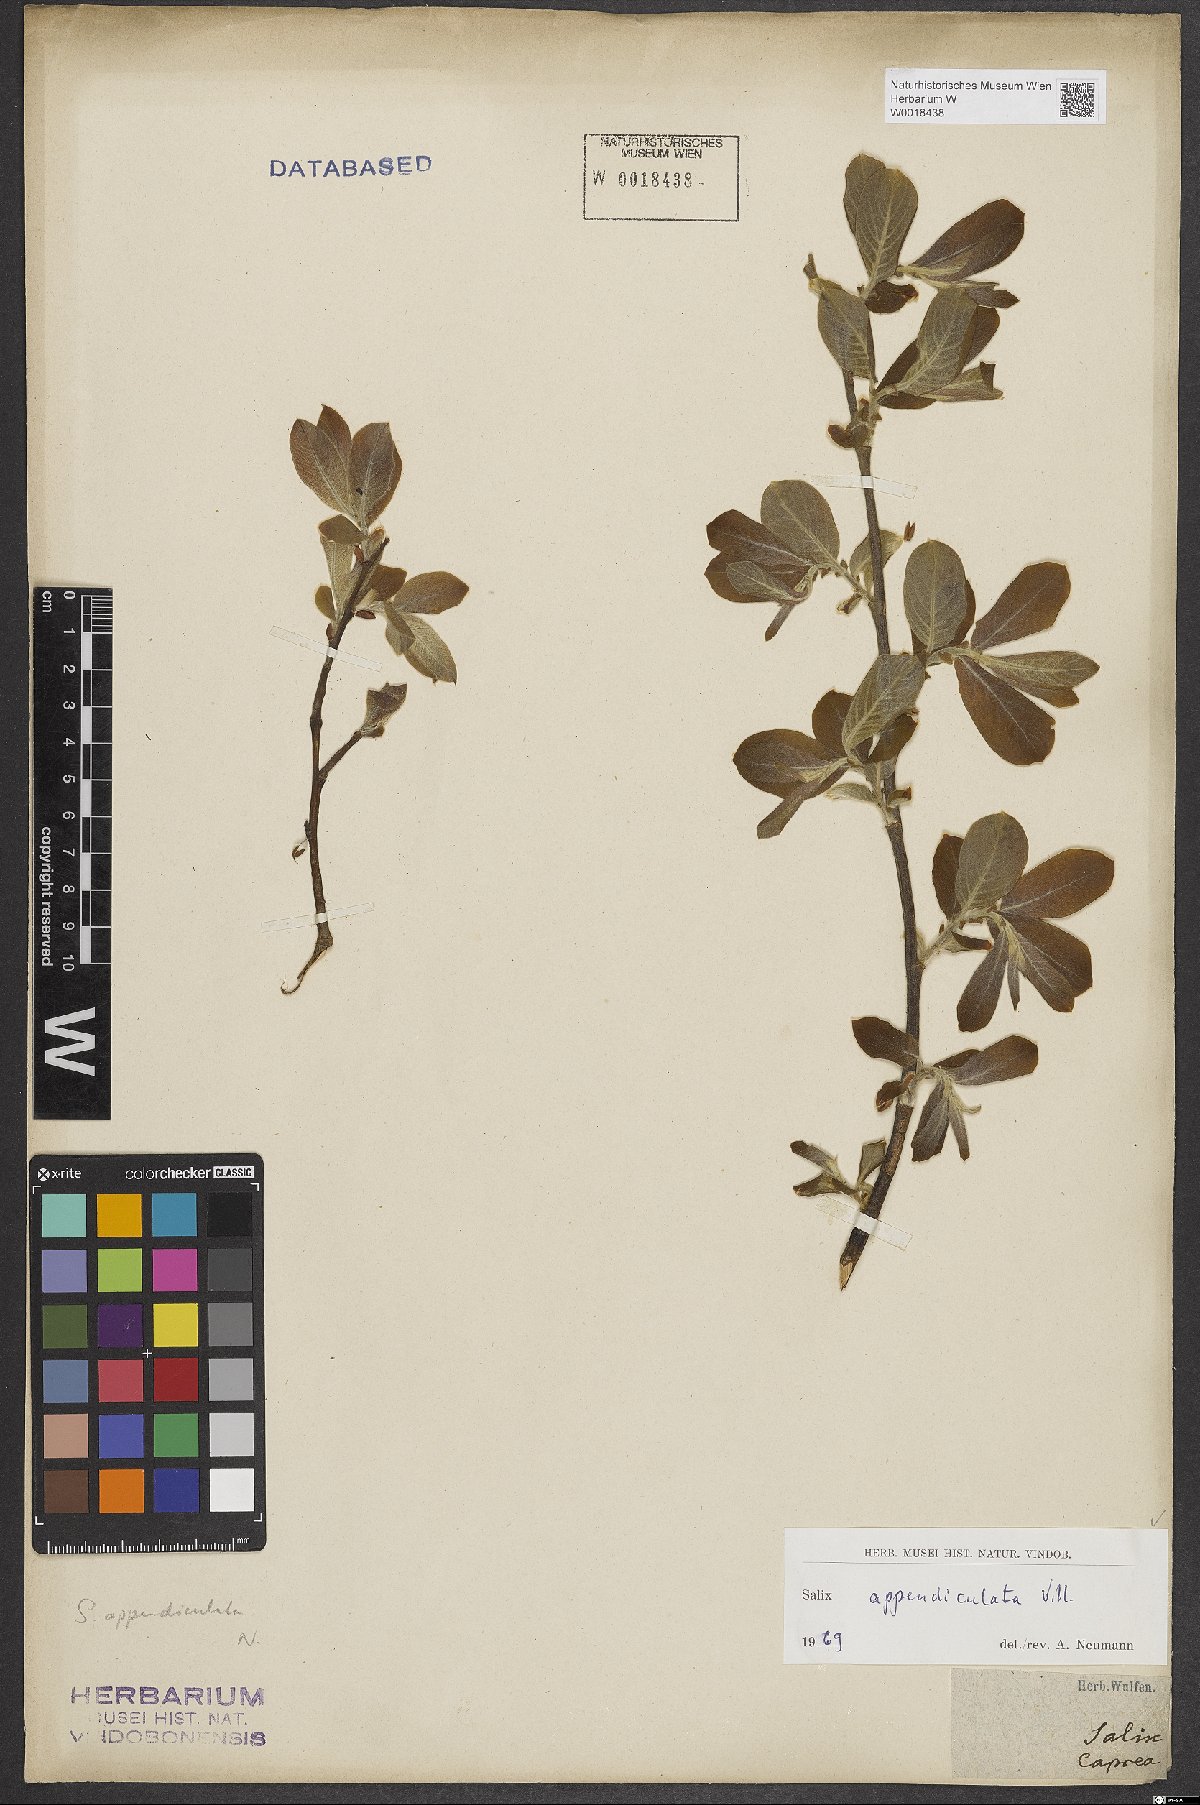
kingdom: Plantae
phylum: Tracheophyta
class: Magnoliopsida
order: Malpighiales
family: Salicaceae
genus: Salix
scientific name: Salix appendiculata
